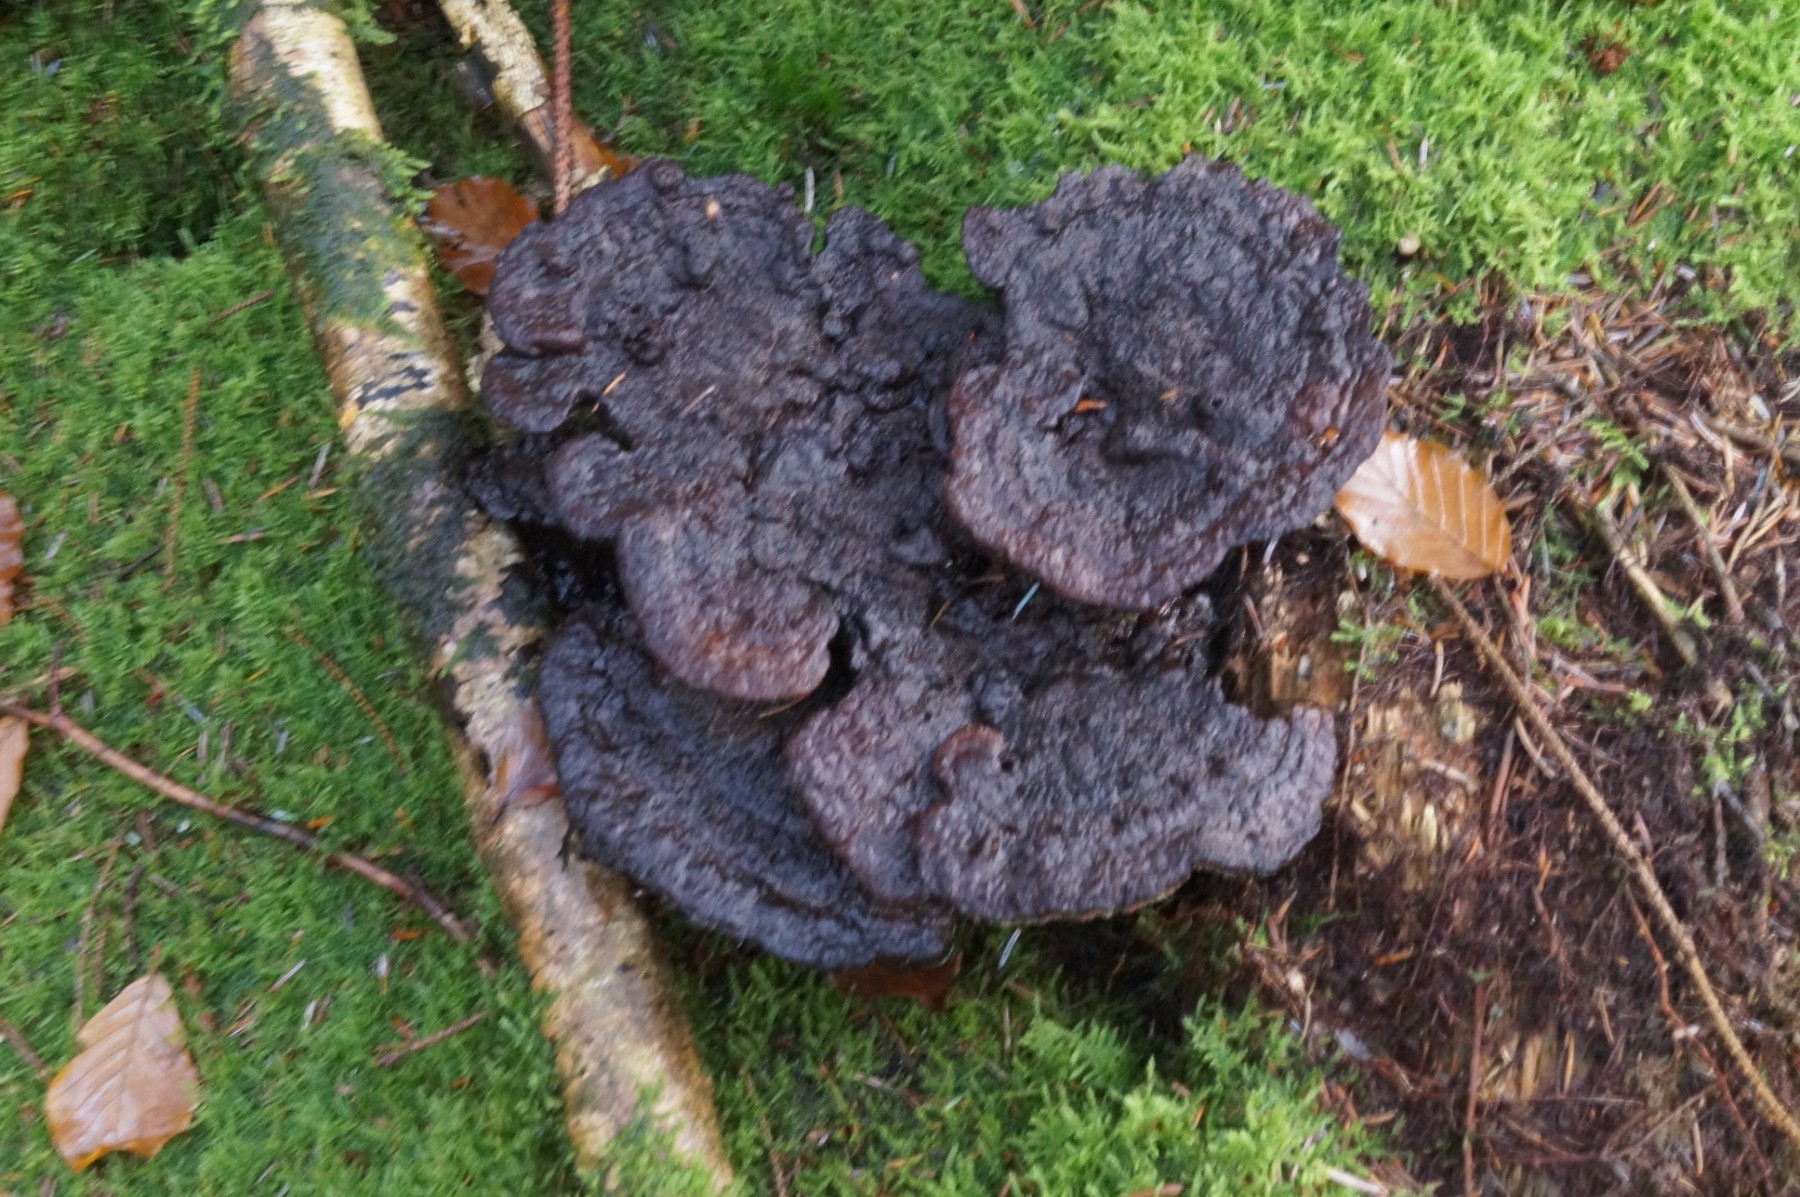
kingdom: Fungi
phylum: Basidiomycota
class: Agaricomycetes
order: Polyporales
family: Laetiporaceae
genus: Phaeolus
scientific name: Phaeolus schweinitzii
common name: brunporesvamp
